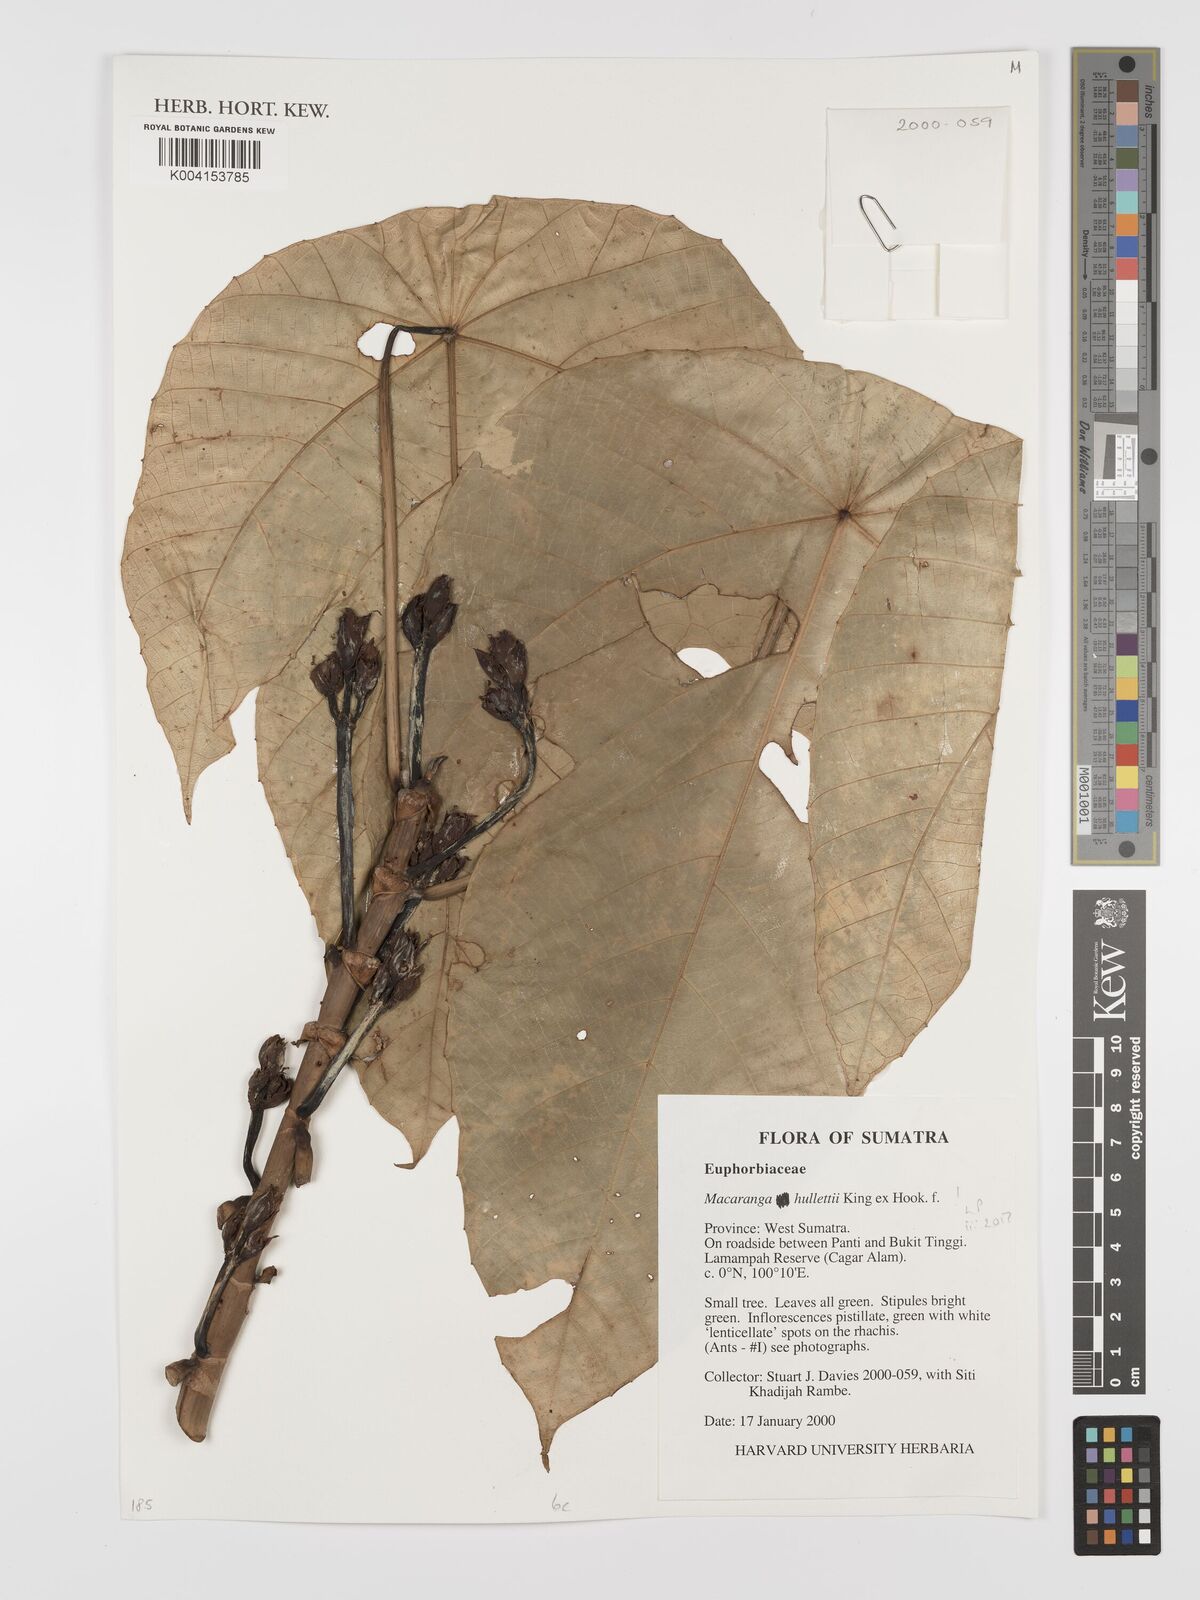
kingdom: Plantae
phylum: Tracheophyta
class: Magnoliopsida
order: Malpighiales
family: Euphorbiaceae
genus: Macaranga
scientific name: Macaranga hullettii
